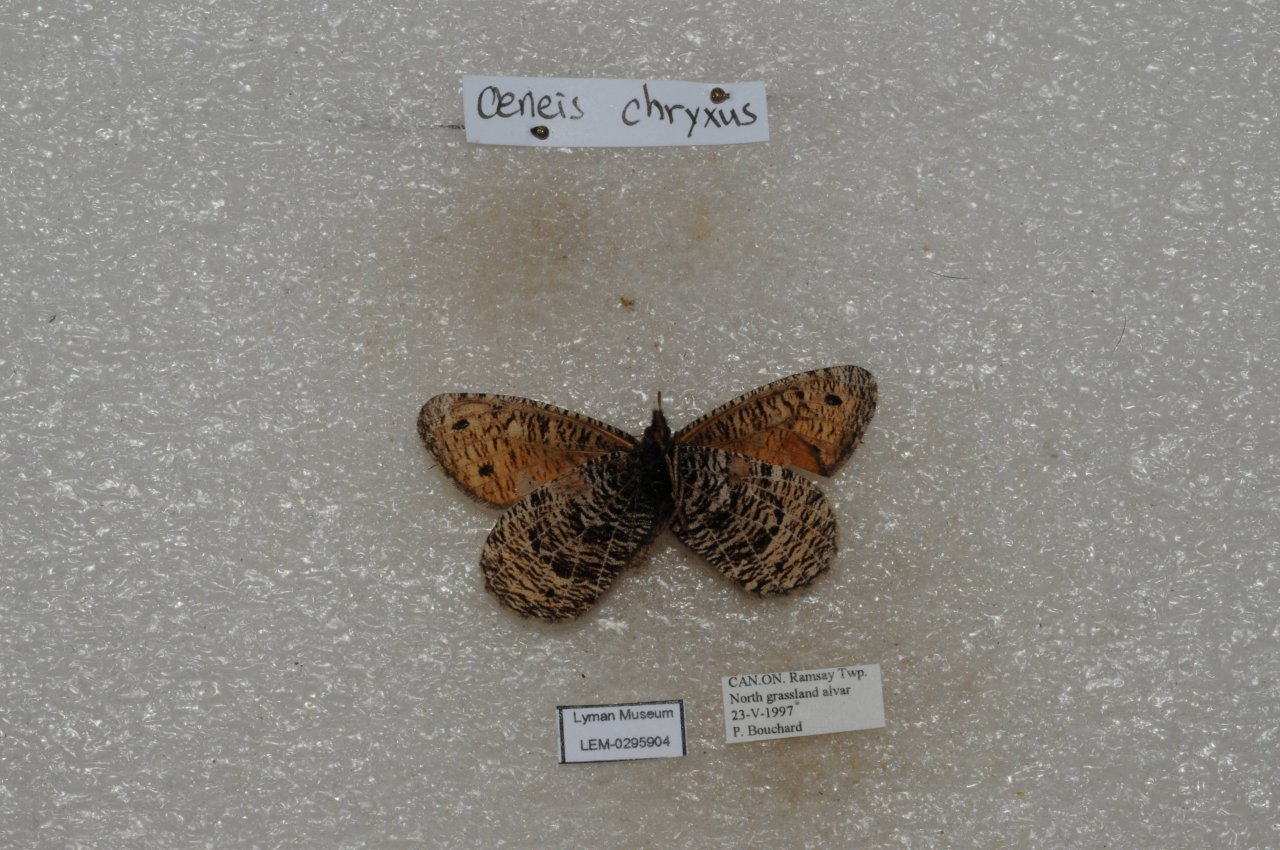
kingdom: Animalia
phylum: Arthropoda
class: Insecta
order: Lepidoptera
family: Nymphalidae
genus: Oeneis
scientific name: Oeneis chryxus
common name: Chryxus Arctic
